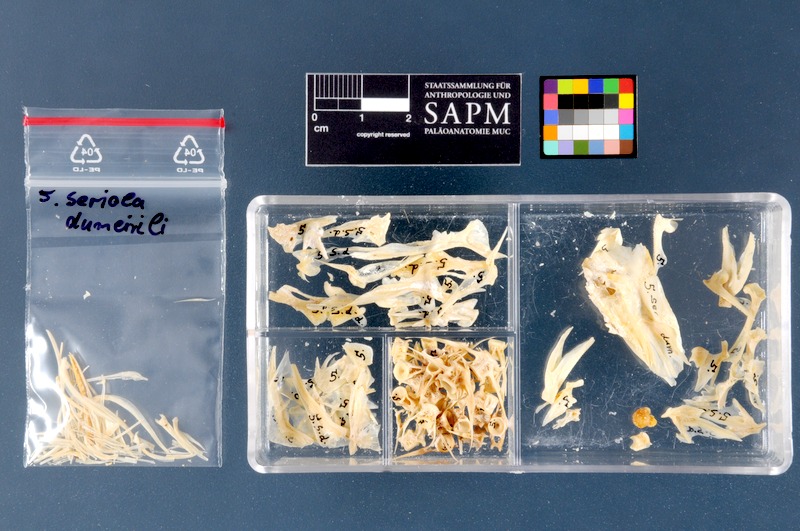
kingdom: Animalia
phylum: Chordata
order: Perciformes
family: Carangidae
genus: Seriola
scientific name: Seriola dumerili
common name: Greater amberjack
